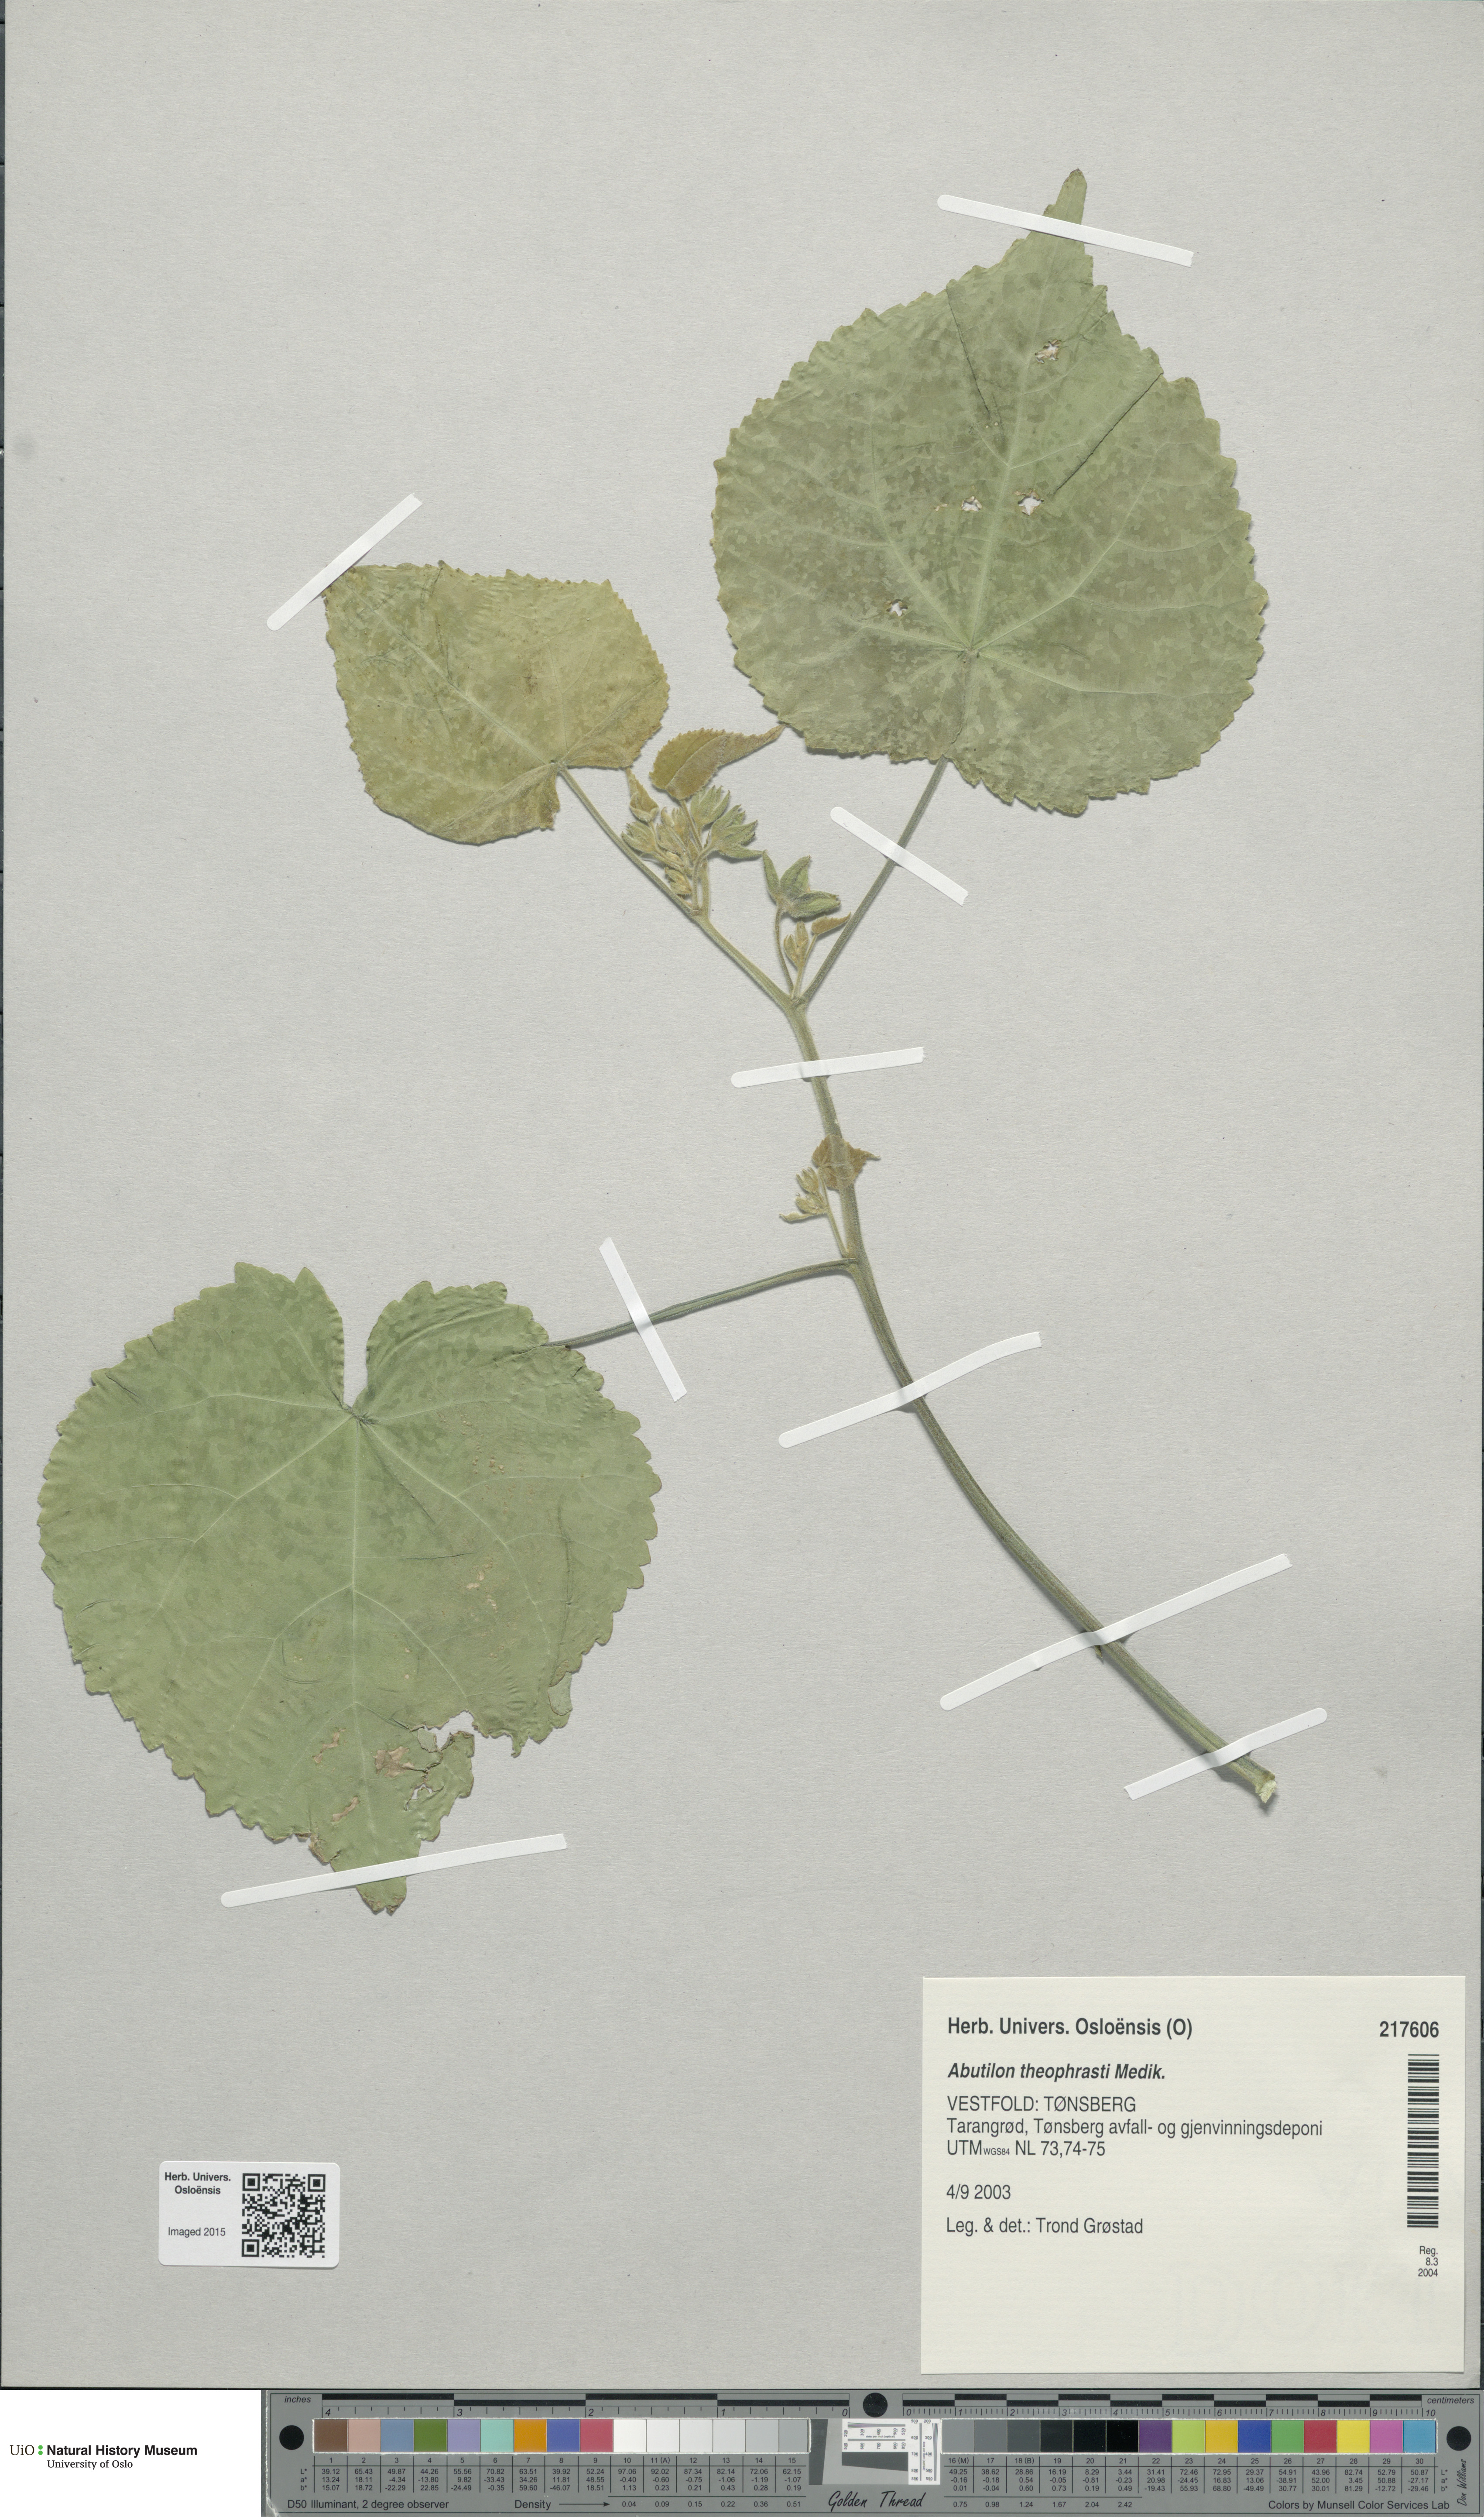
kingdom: Plantae
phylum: Tracheophyta
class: Magnoliopsida
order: Malvales
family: Malvaceae
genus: Abutilon
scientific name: Abutilon theophrasti
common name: Velvetleaf
